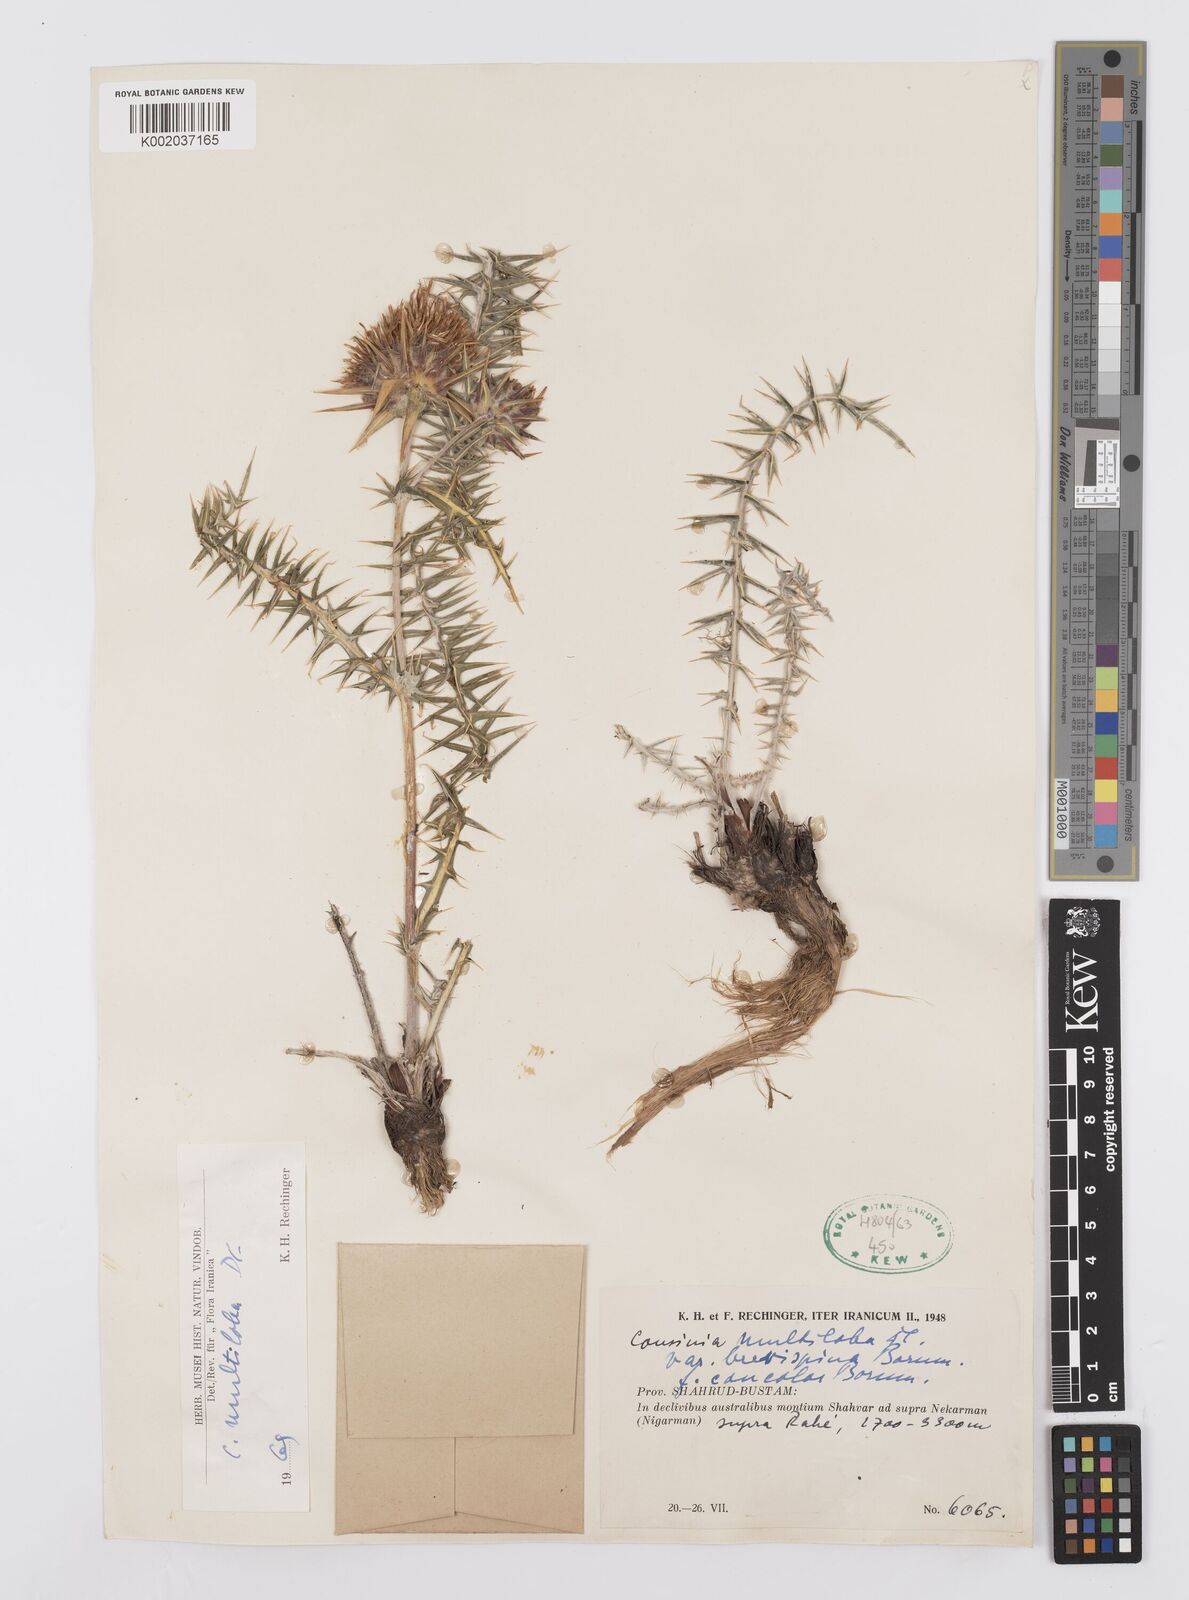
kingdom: Plantae
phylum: Tracheophyta
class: Magnoliopsida
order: Asterales
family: Asteraceae
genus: Cousinia
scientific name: Cousinia multiloba
